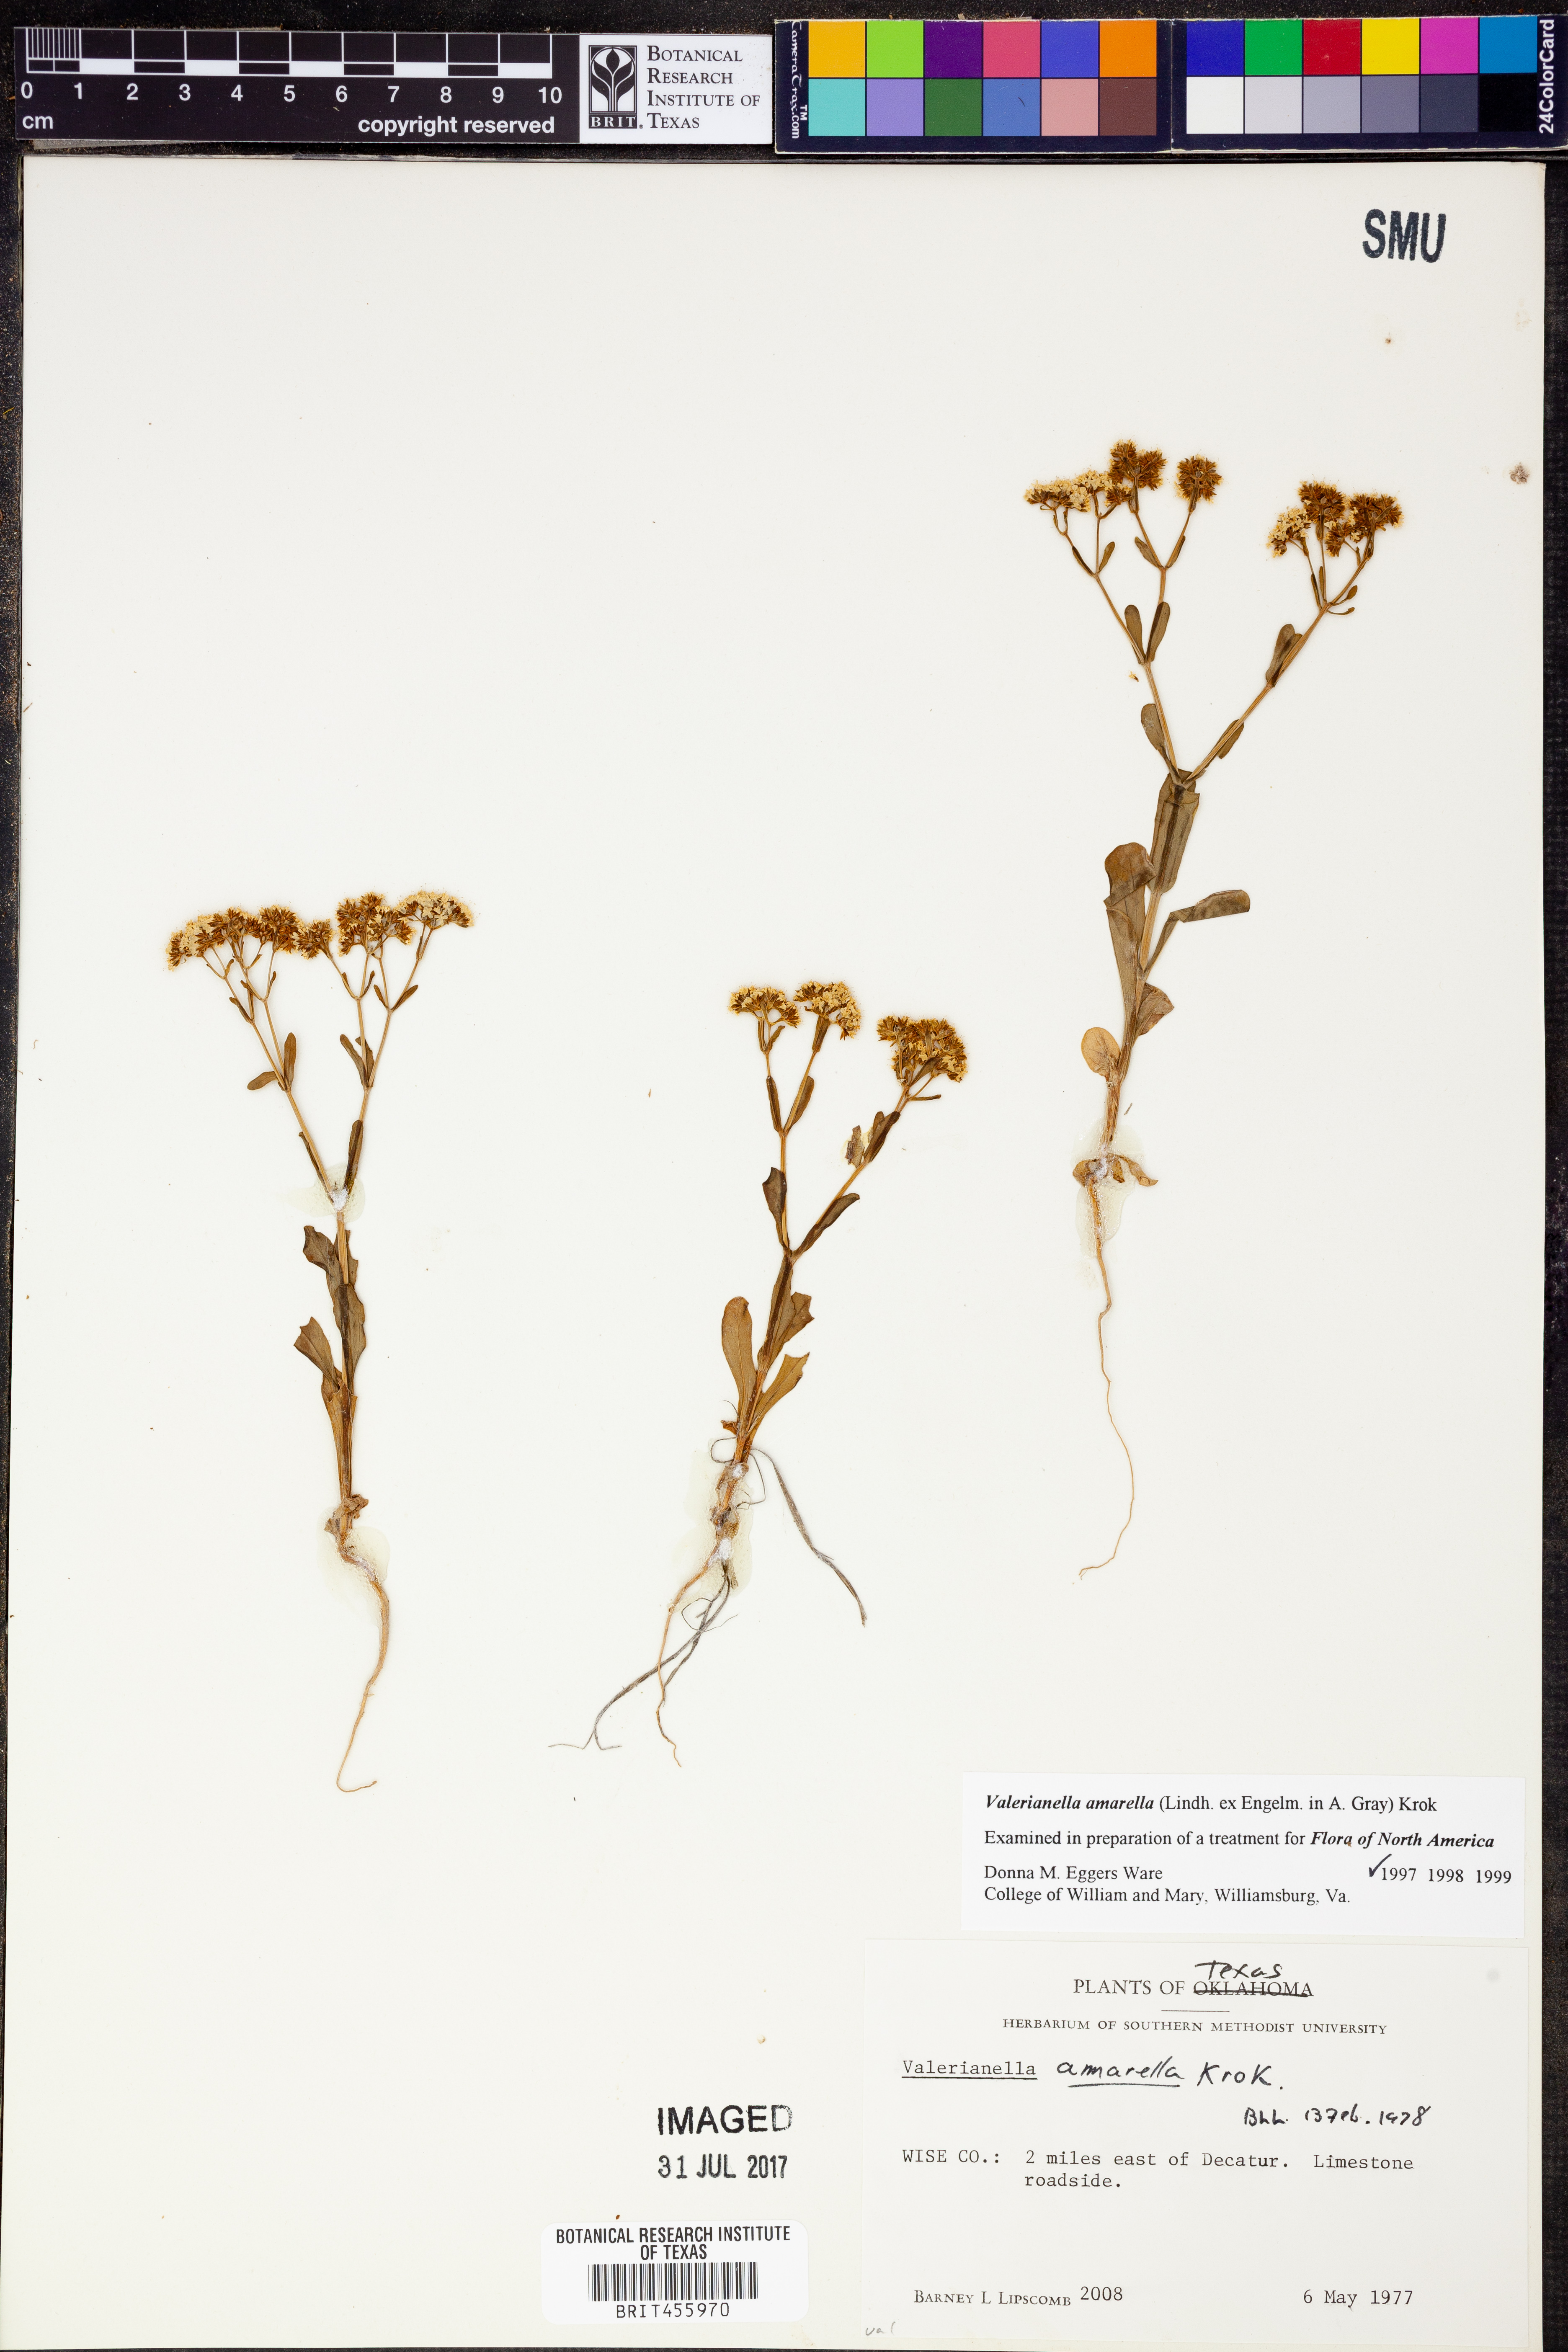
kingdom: Plantae
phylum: Tracheophyta
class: Magnoliopsida
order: Dipsacales
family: Caprifoliaceae
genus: Valerianella
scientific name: Valerianella amarella
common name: Hariy cornsalad
